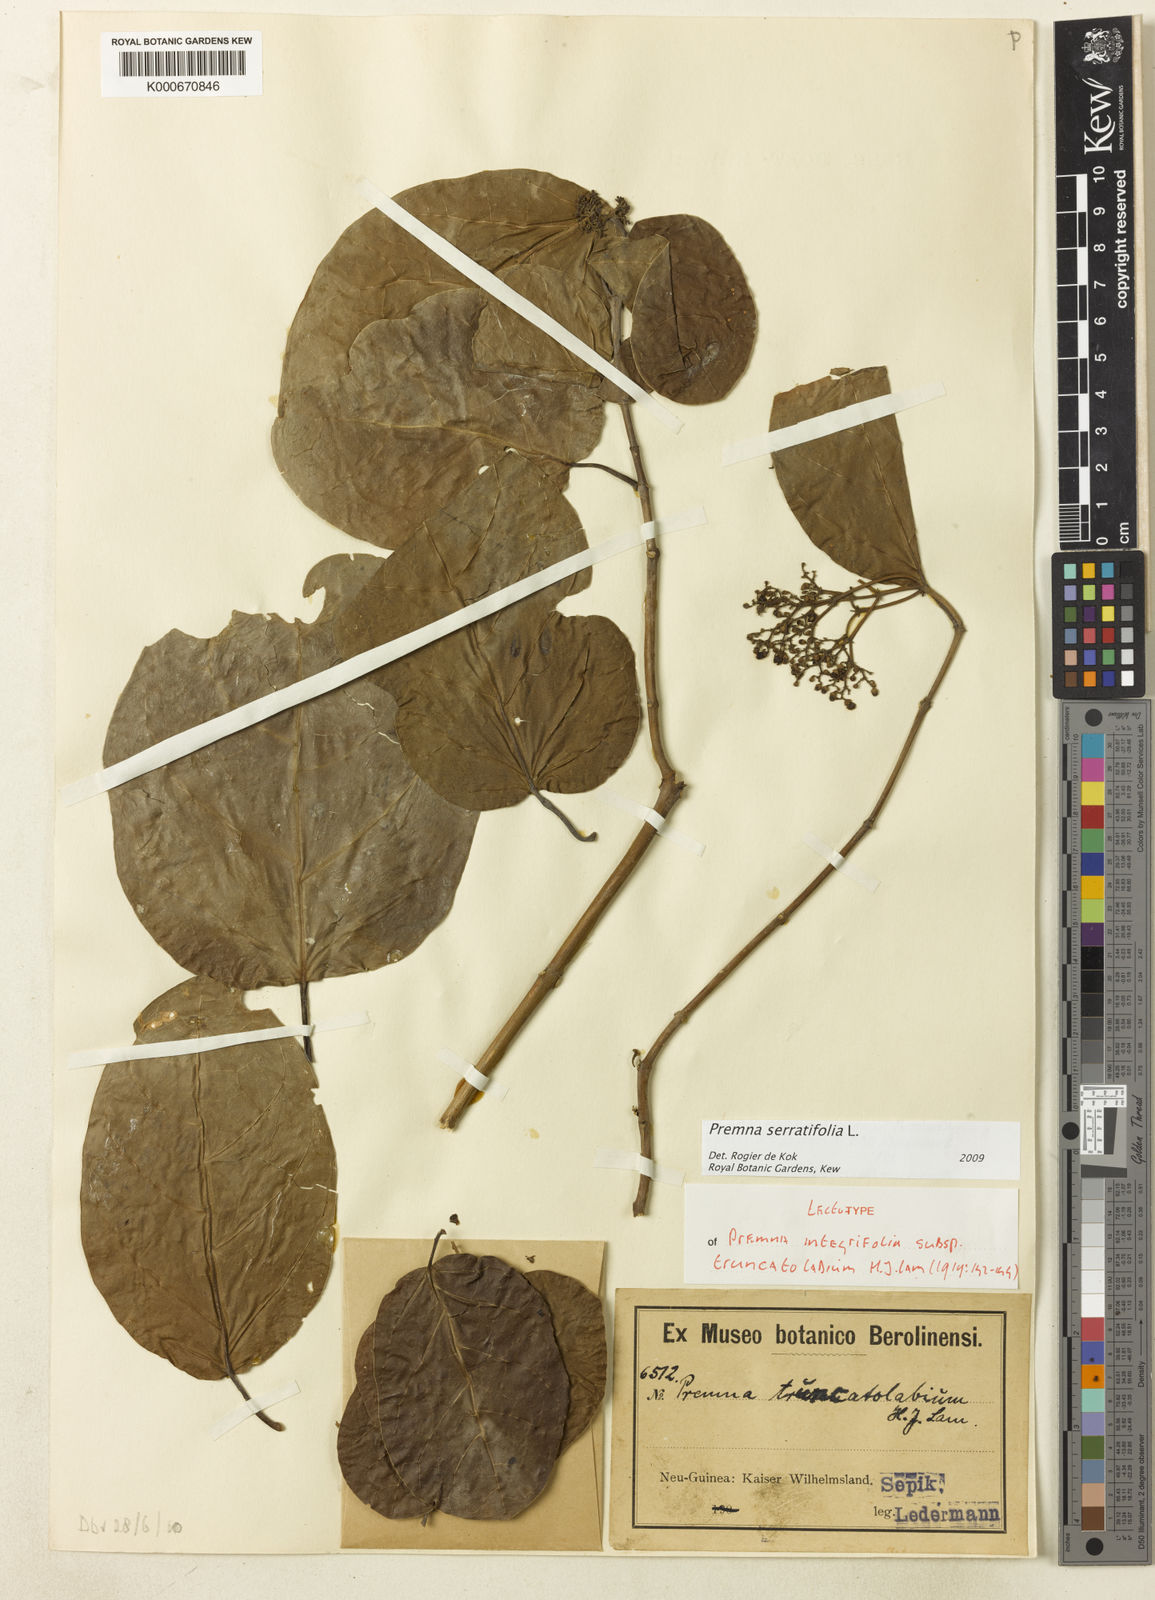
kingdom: Plantae
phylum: Tracheophyta
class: Magnoliopsida
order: Lamiales
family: Lamiaceae
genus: Premna
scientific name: Premna
